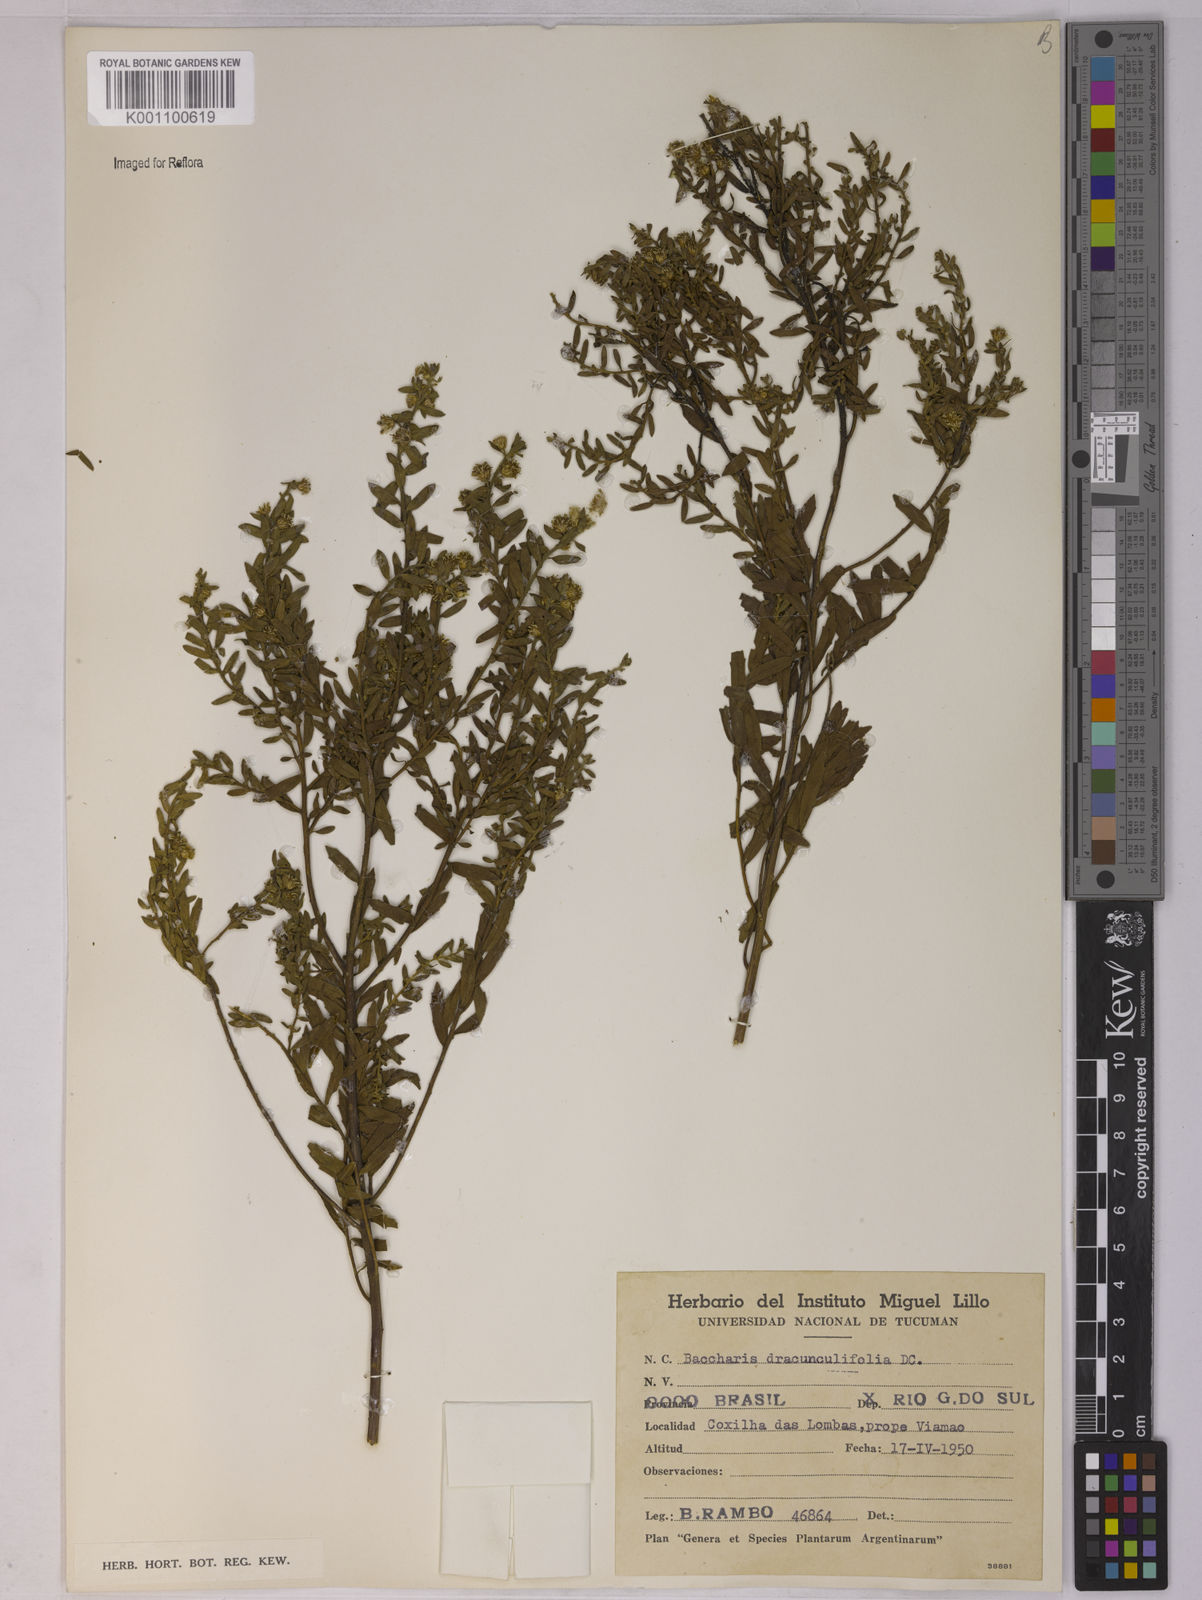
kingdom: Plantae
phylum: Tracheophyta
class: Magnoliopsida
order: Asterales
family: Asteraceae
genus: Baccharis
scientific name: Baccharis dracunculifolia
